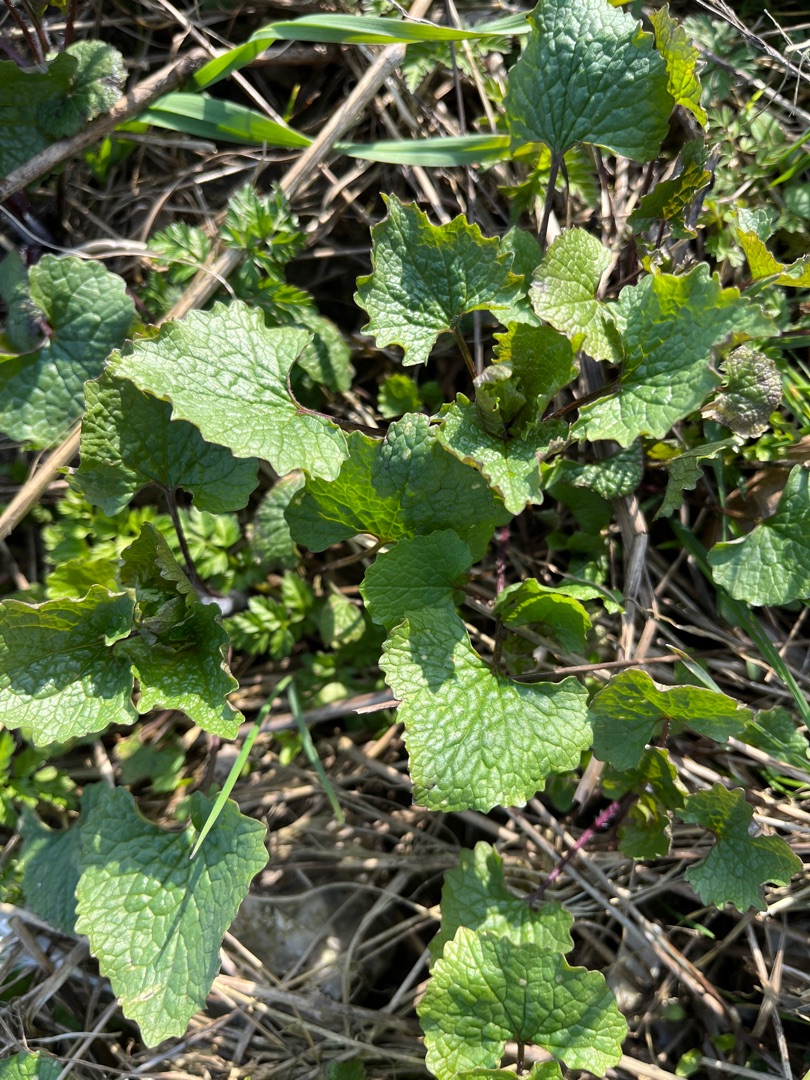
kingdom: Plantae
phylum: Tracheophyta
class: Magnoliopsida
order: Brassicales
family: Brassicaceae
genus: Alliaria
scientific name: Alliaria petiolata
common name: Løgkarse
